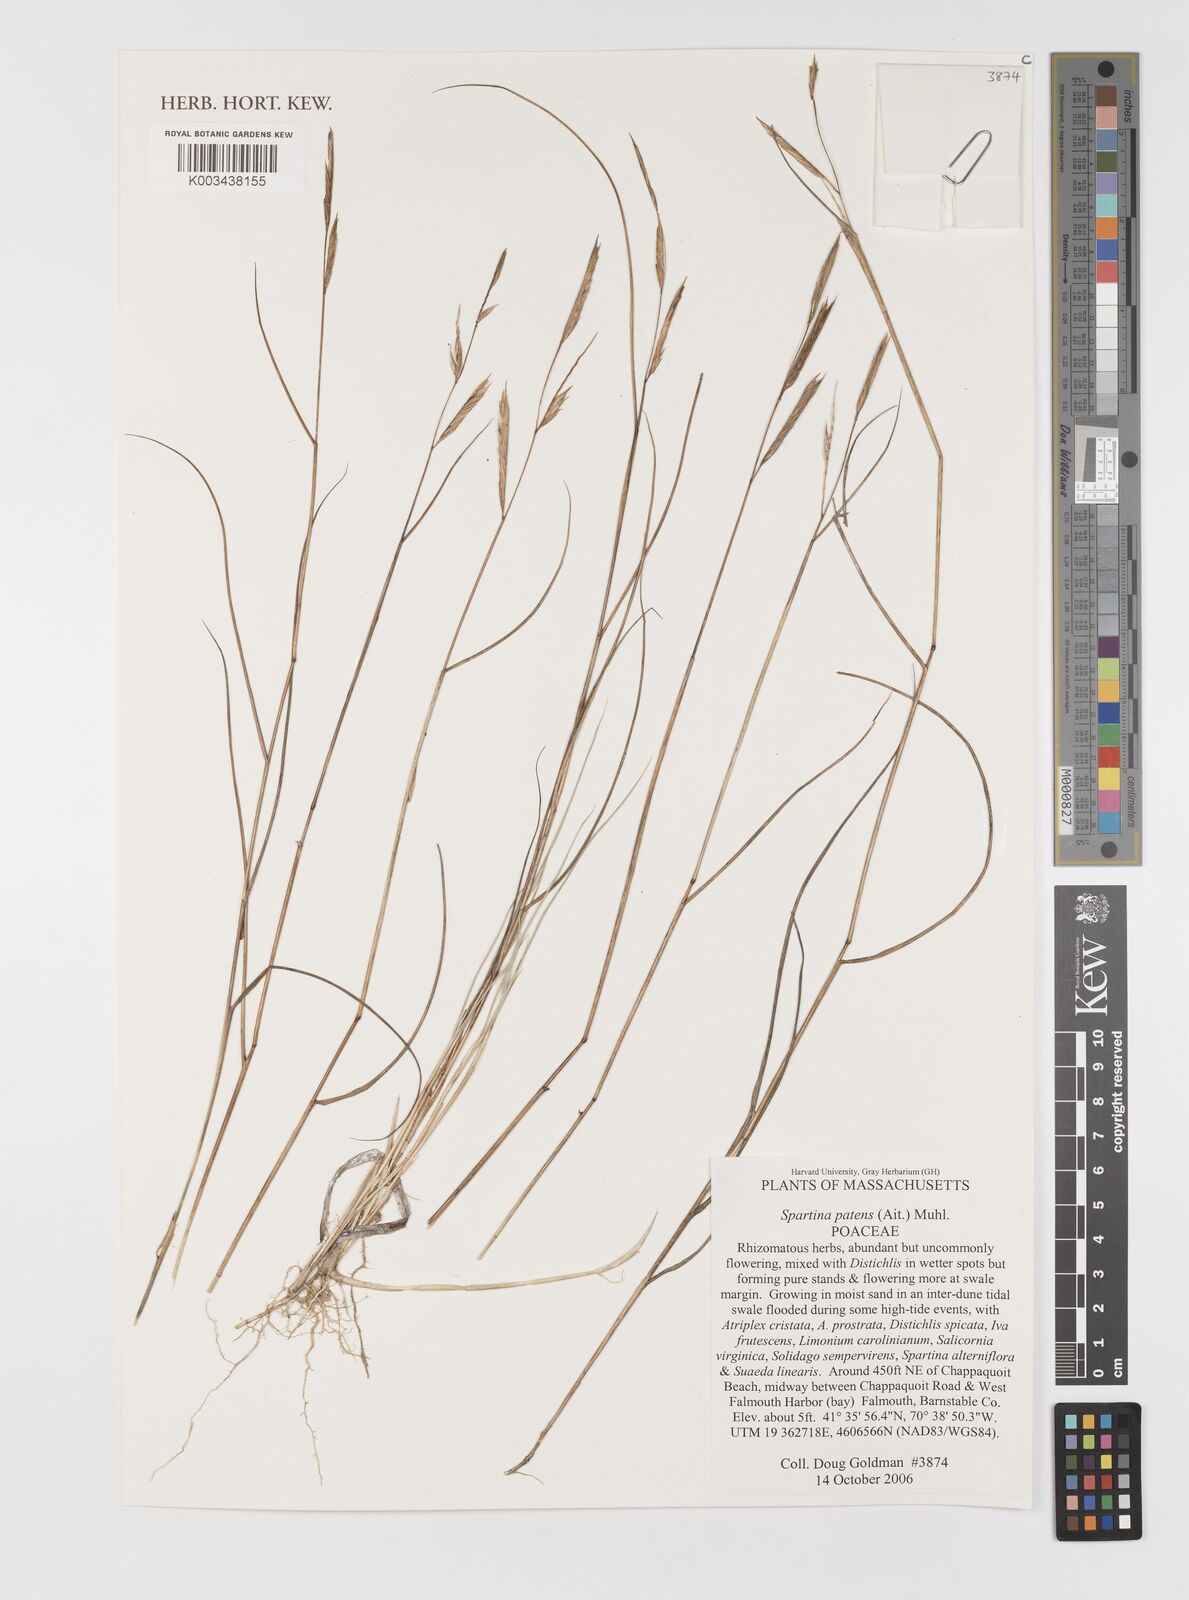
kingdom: Plantae
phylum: Tracheophyta
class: Liliopsida
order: Poales
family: Poaceae
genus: Sporobolus
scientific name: Sporobolus pumilus
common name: Highwater grass
